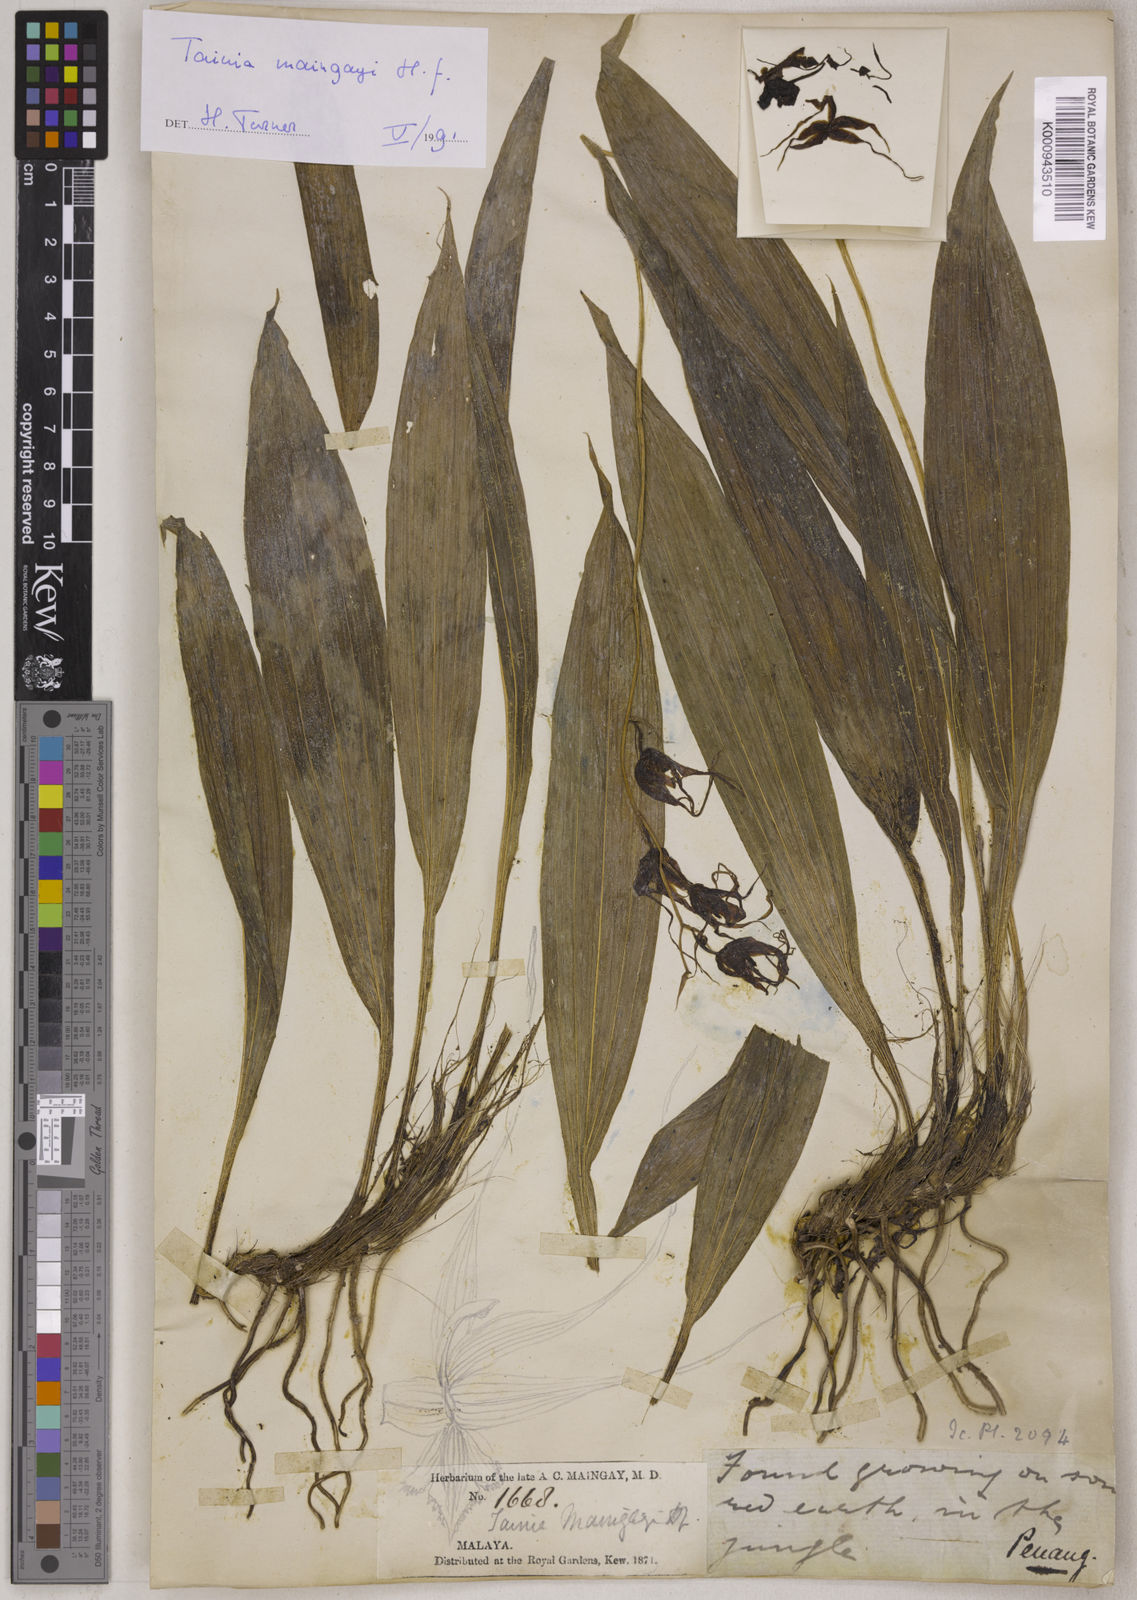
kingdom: Plantae
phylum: Tracheophyta
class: Liliopsida
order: Asparagales
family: Orchidaceae
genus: Tainia
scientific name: Tainia maingayi
